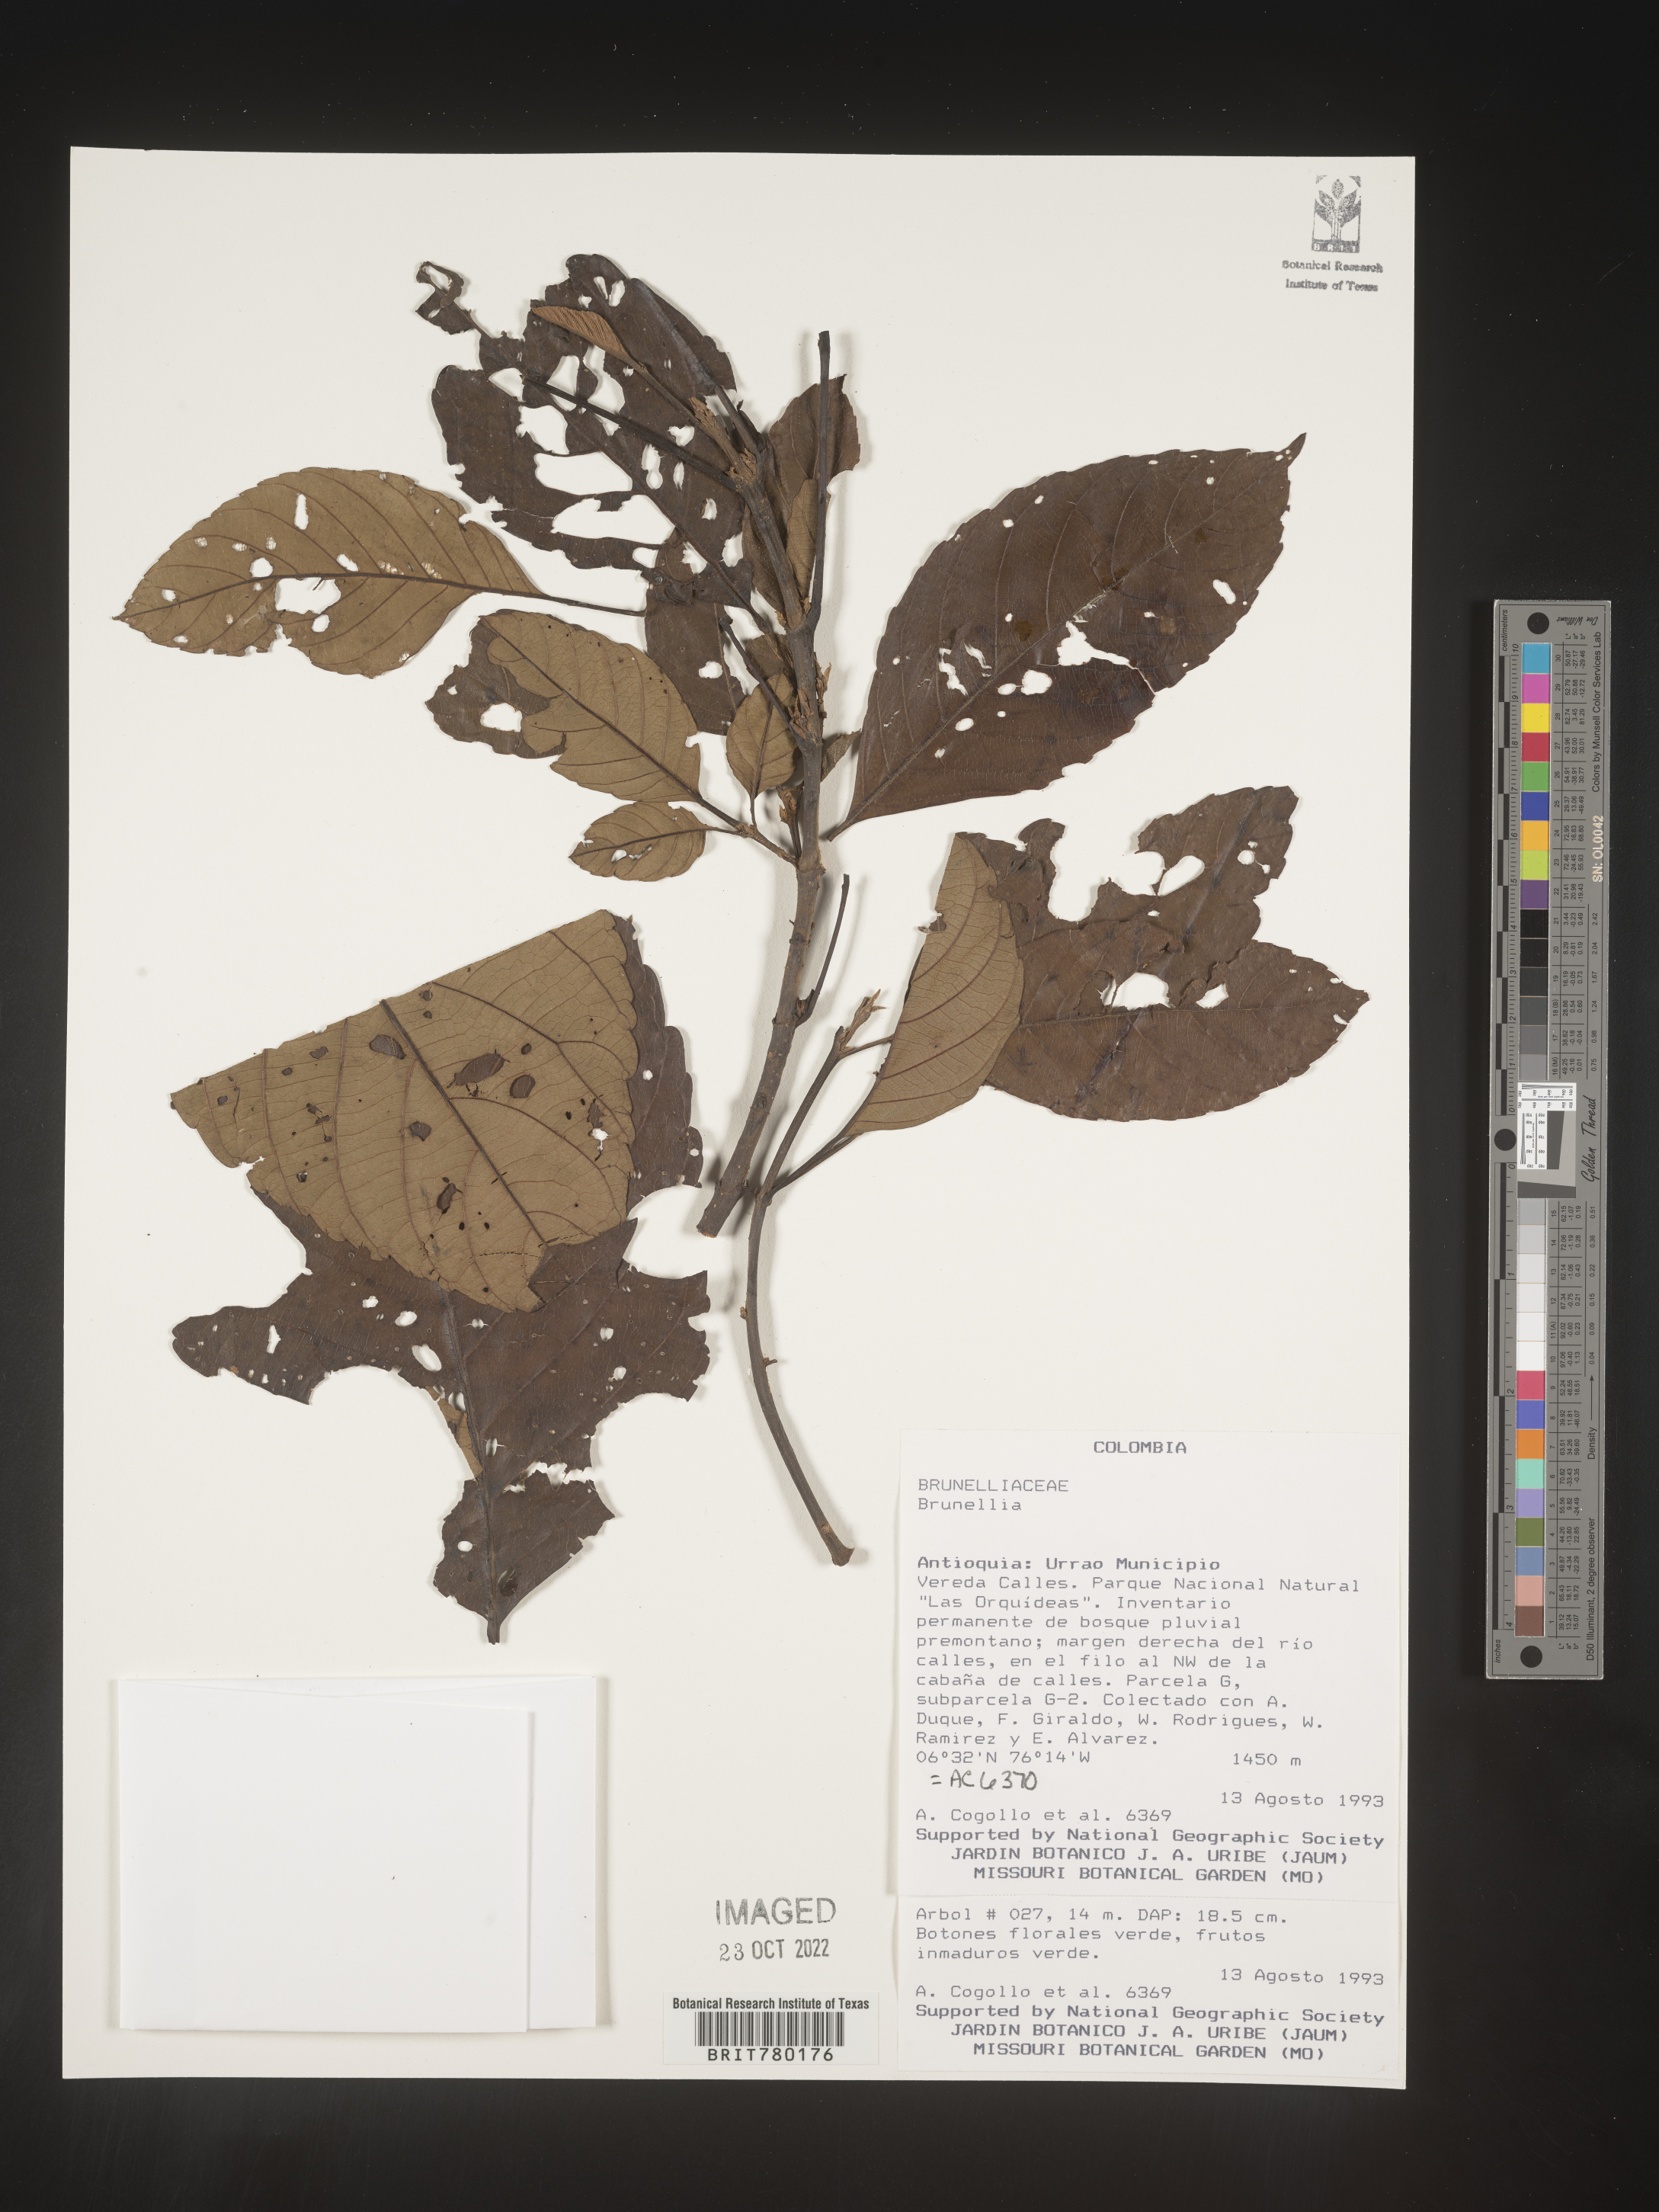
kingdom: Plantae
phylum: Tracheophyta
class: Magnoliopsida
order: Oxalidales
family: Brunelliaceae
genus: Brunellia
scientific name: Brunellia
